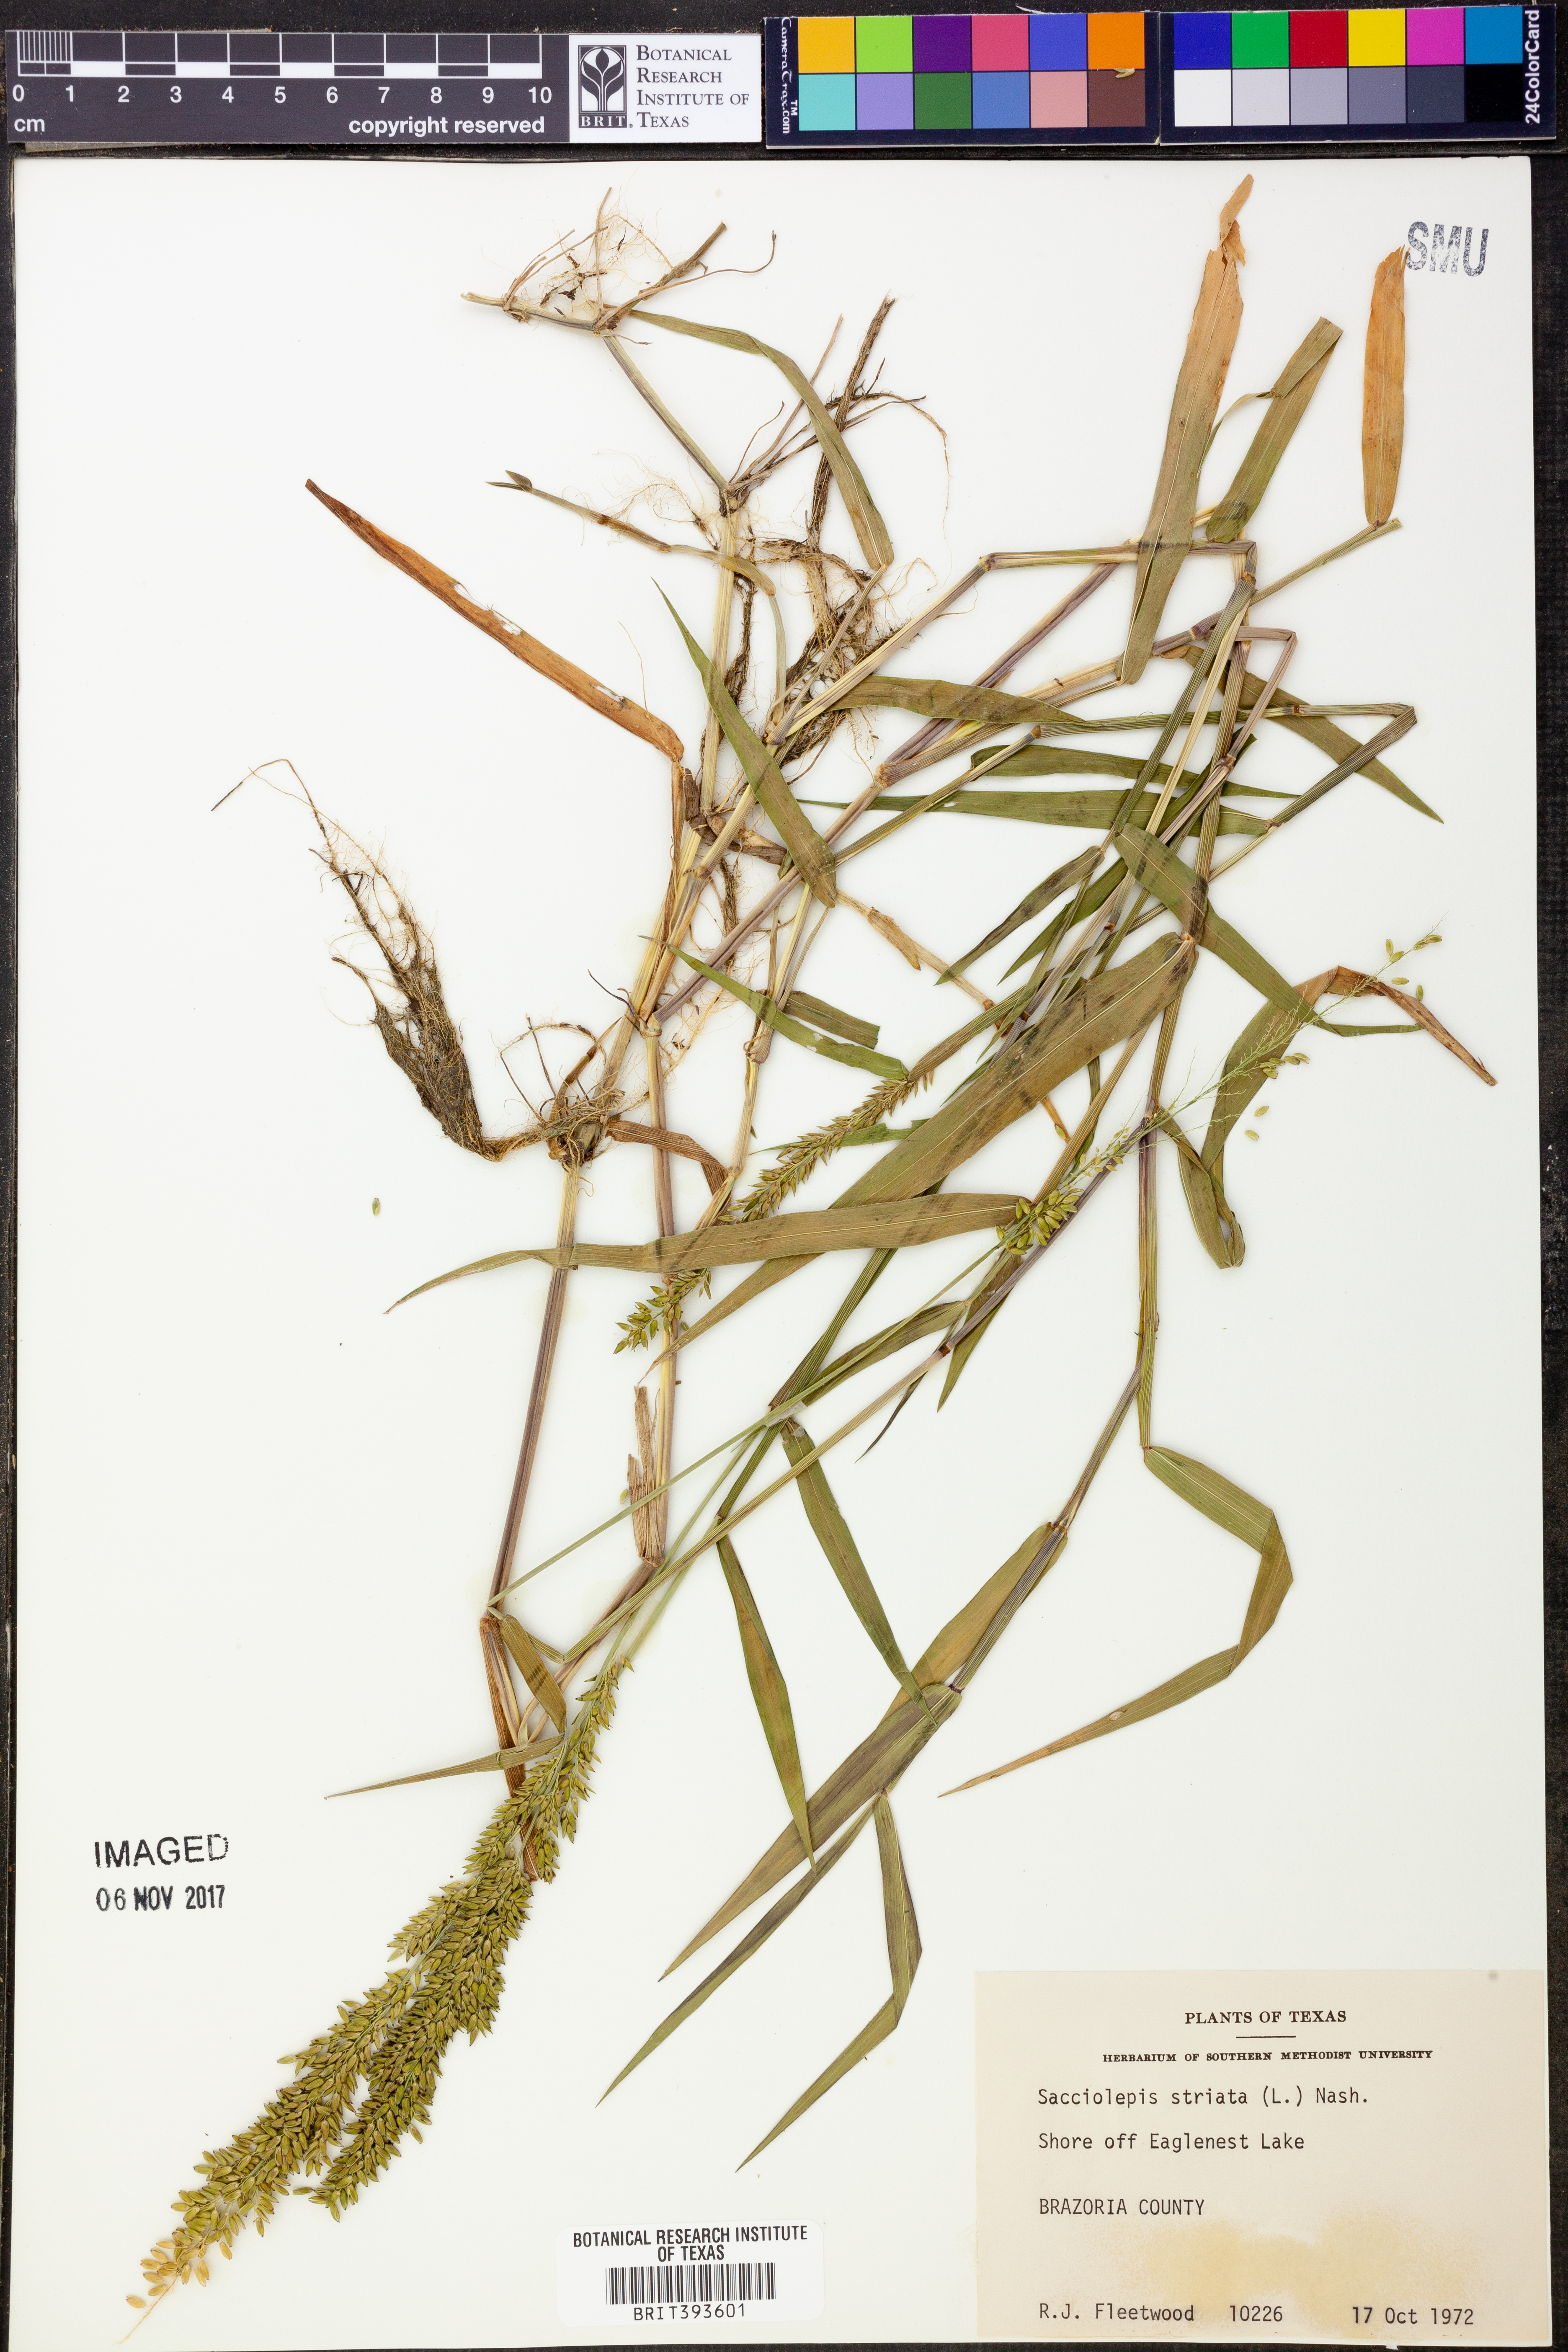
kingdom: Plantae
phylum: Tracheophyta
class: Liliopsida
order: Poales
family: Poaceae
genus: Sacciolepis
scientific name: Sacciolepis striata
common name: American cupscale
